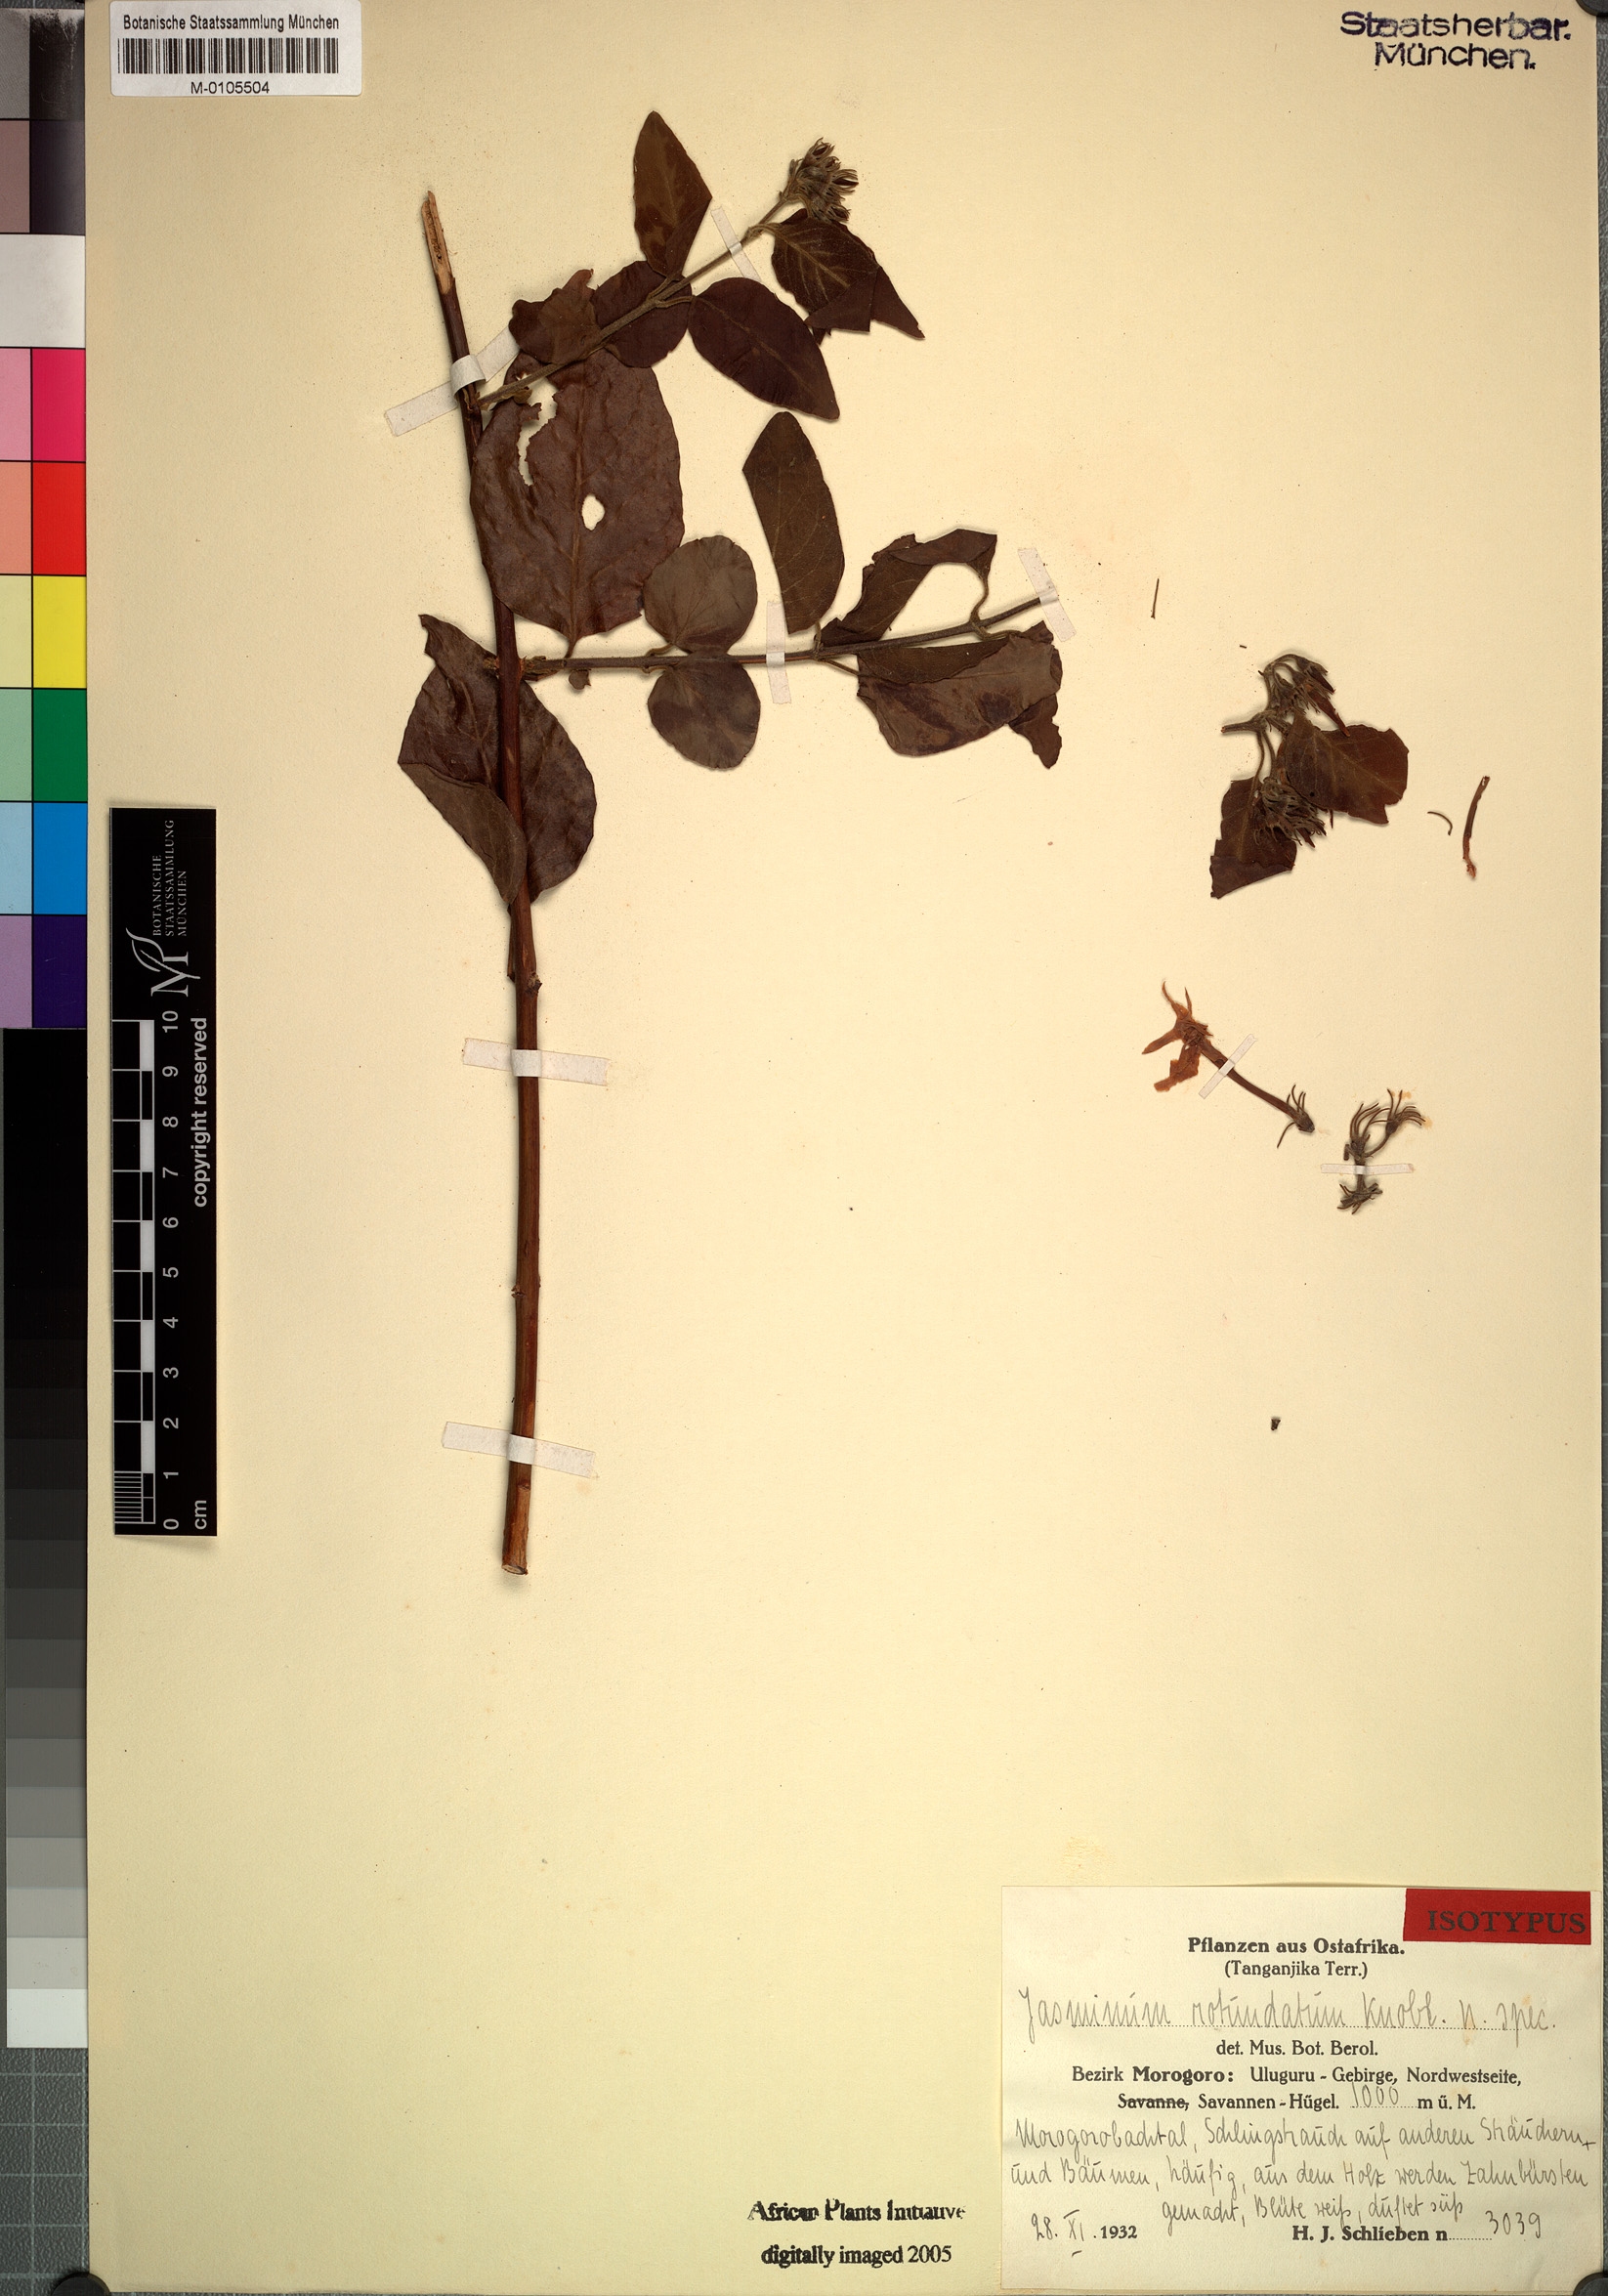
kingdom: Plantae
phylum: Tracheophyta
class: Magnoliopsida
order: Lamiales
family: Oleaceae
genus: Jasminum
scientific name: Jasminum stenolobum
